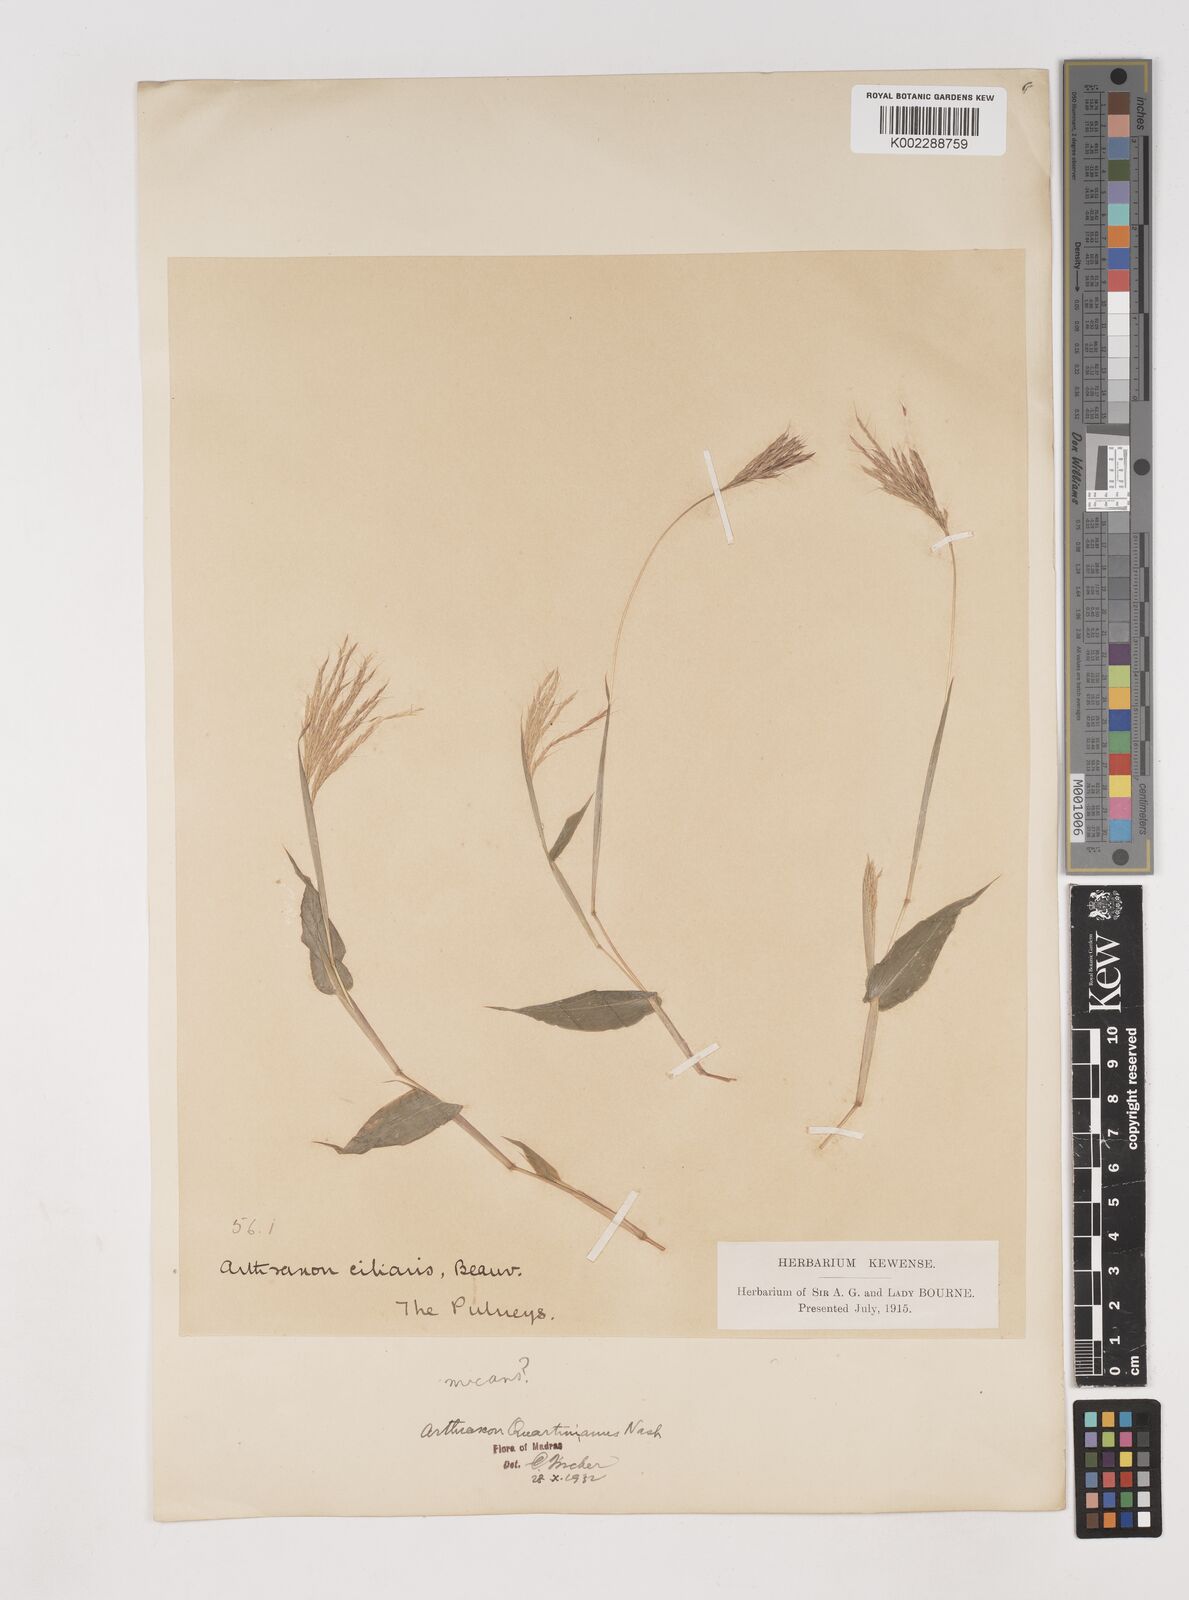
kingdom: Plantae
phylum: Tracheophyta
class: Liliopsida
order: Poales
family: Poaceae
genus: Arthraxon
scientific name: Arthraxon hispidus
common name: Small carpgrass
